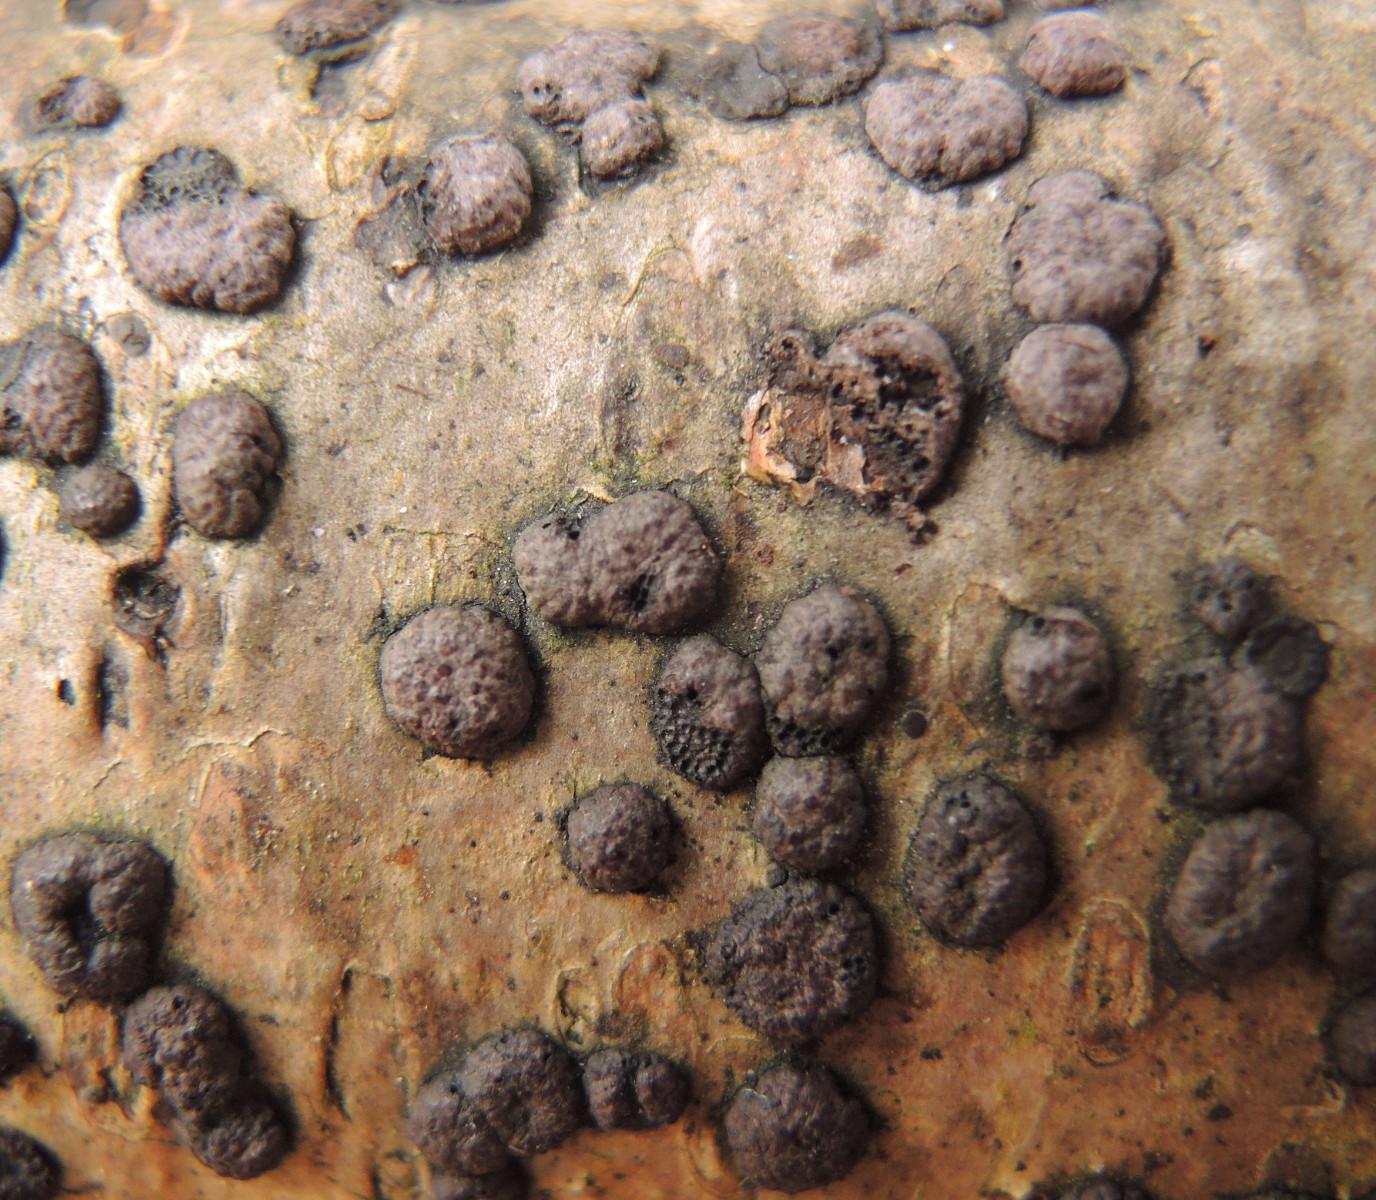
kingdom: Fungi
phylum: Ascomycota
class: Sordariomycetes
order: Xylariales
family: Hypoxylaceae
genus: Hypoxylon
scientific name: Hypoxylon fuscoides
